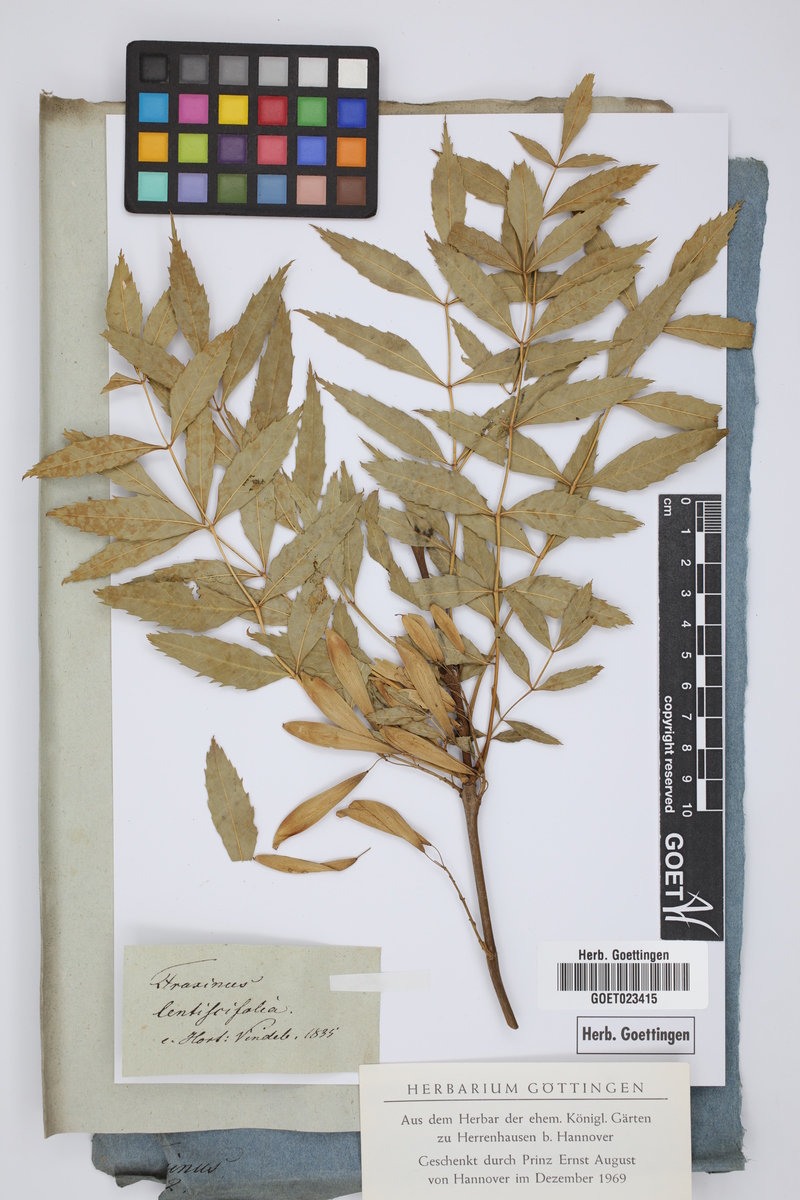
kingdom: Plantae
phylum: Tracheophyta
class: Magnoliopsida
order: Lamiales
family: Oleaceae
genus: Fraxinus
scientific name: Fraxinus angustifolia
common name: Narrow-leafed ash
